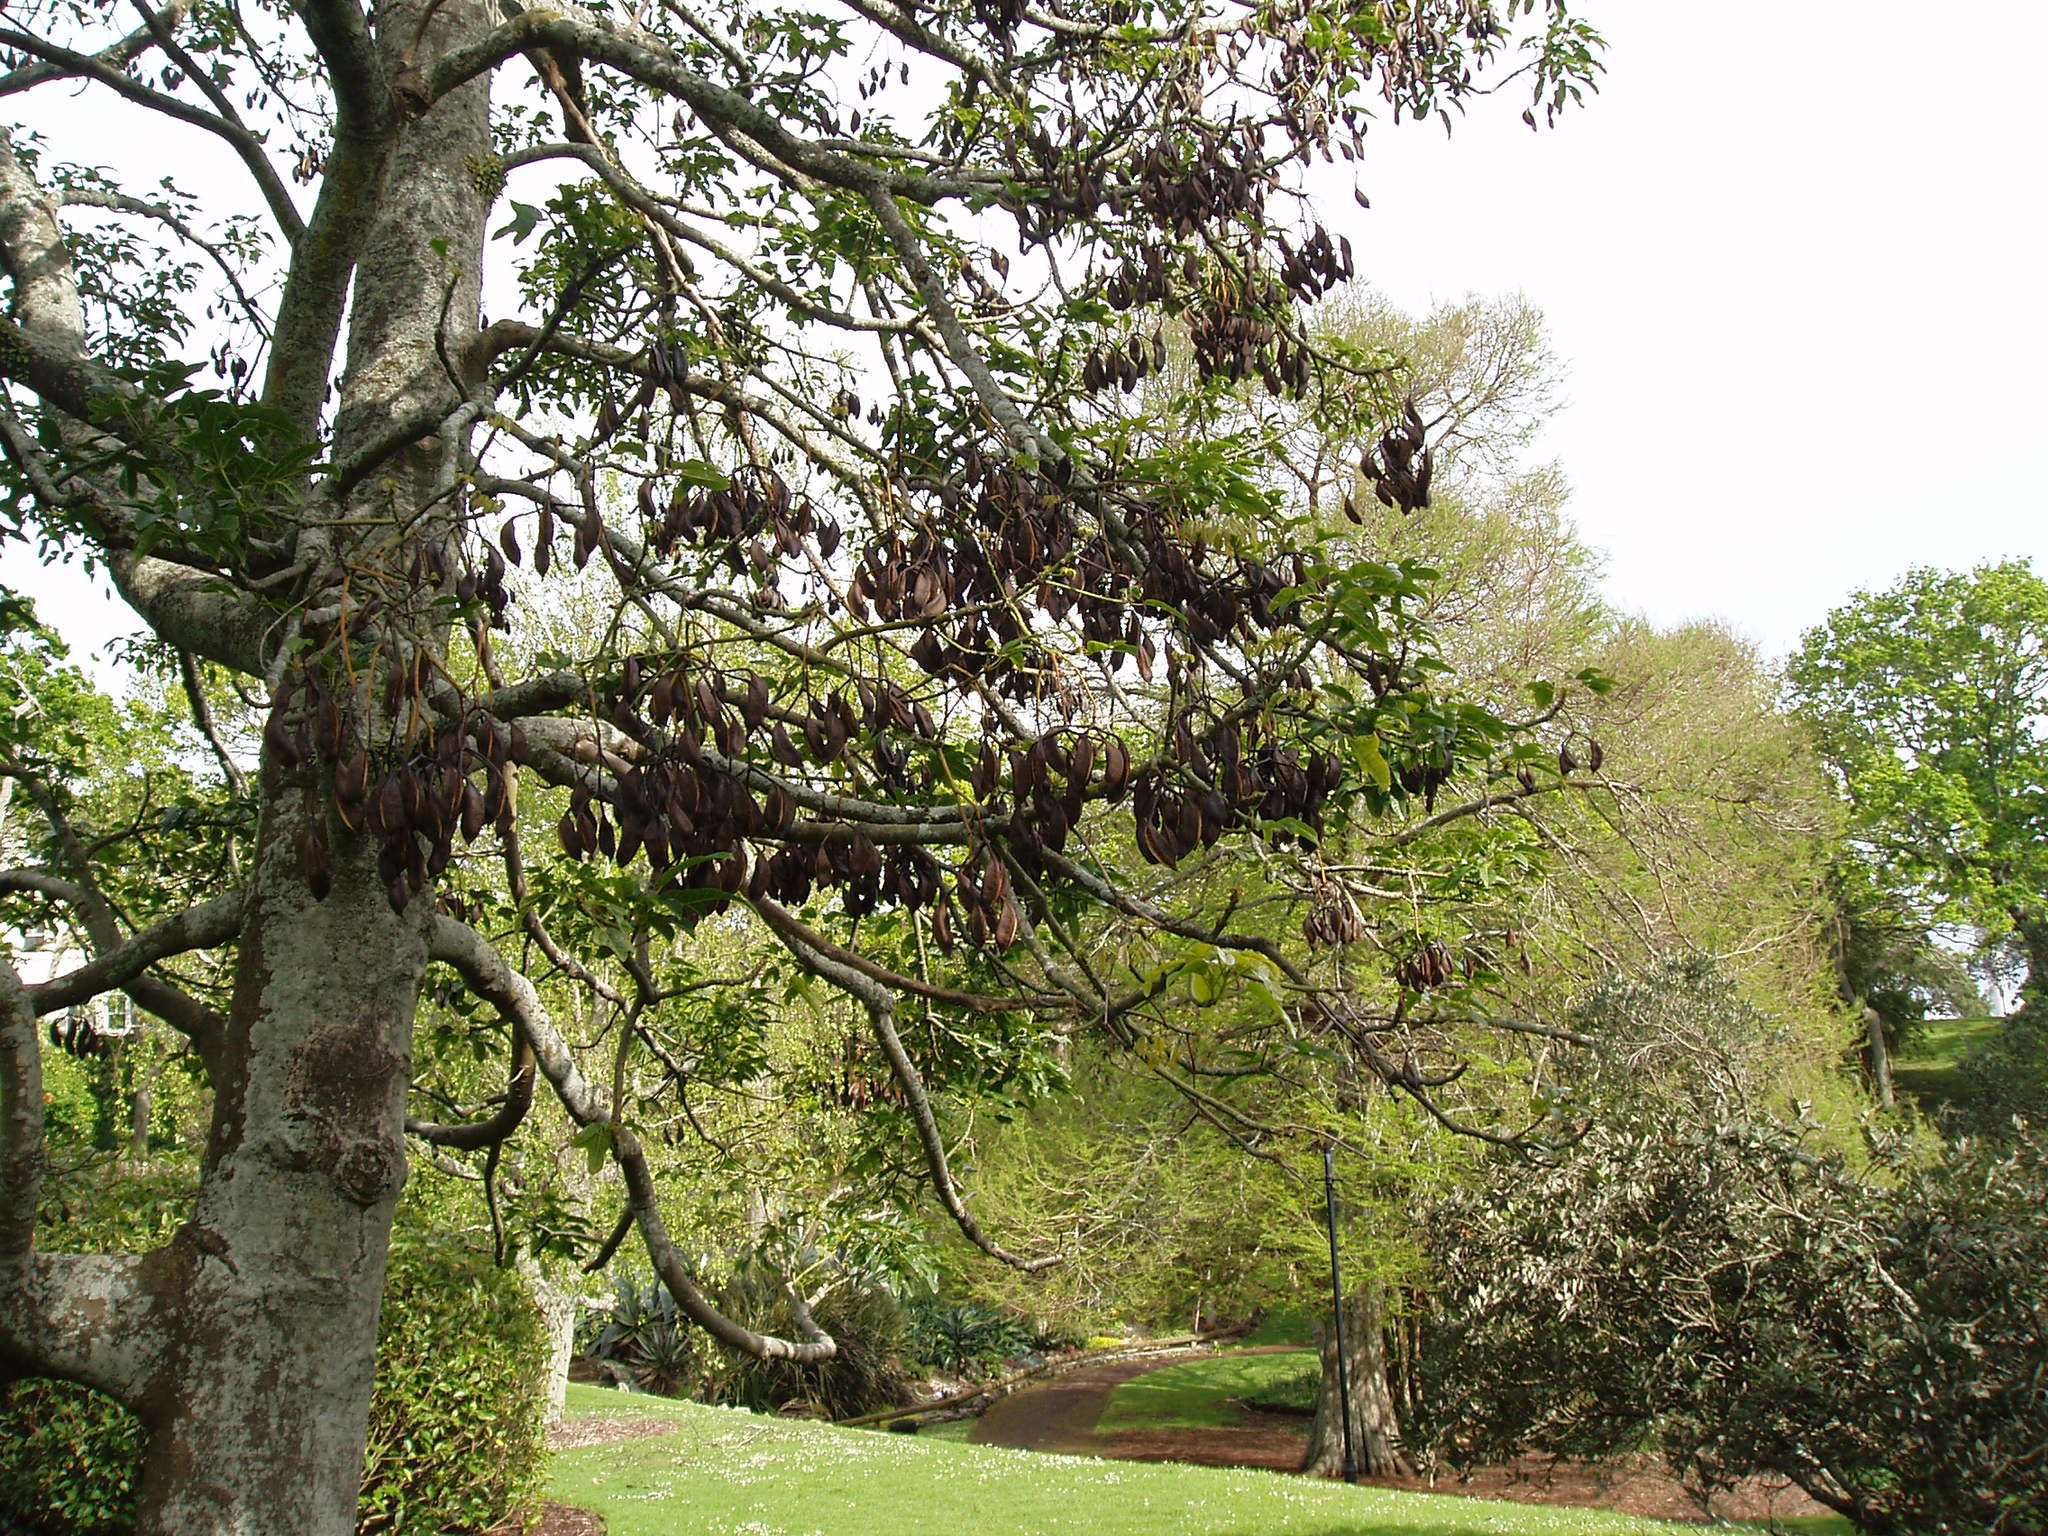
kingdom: Plantae
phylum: Tracheophyta
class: Magnoliopsida
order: Malvales
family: Malvaceae
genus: Brachychiton
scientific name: Brachychiton acerifolius
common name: Illawarra flame tree
